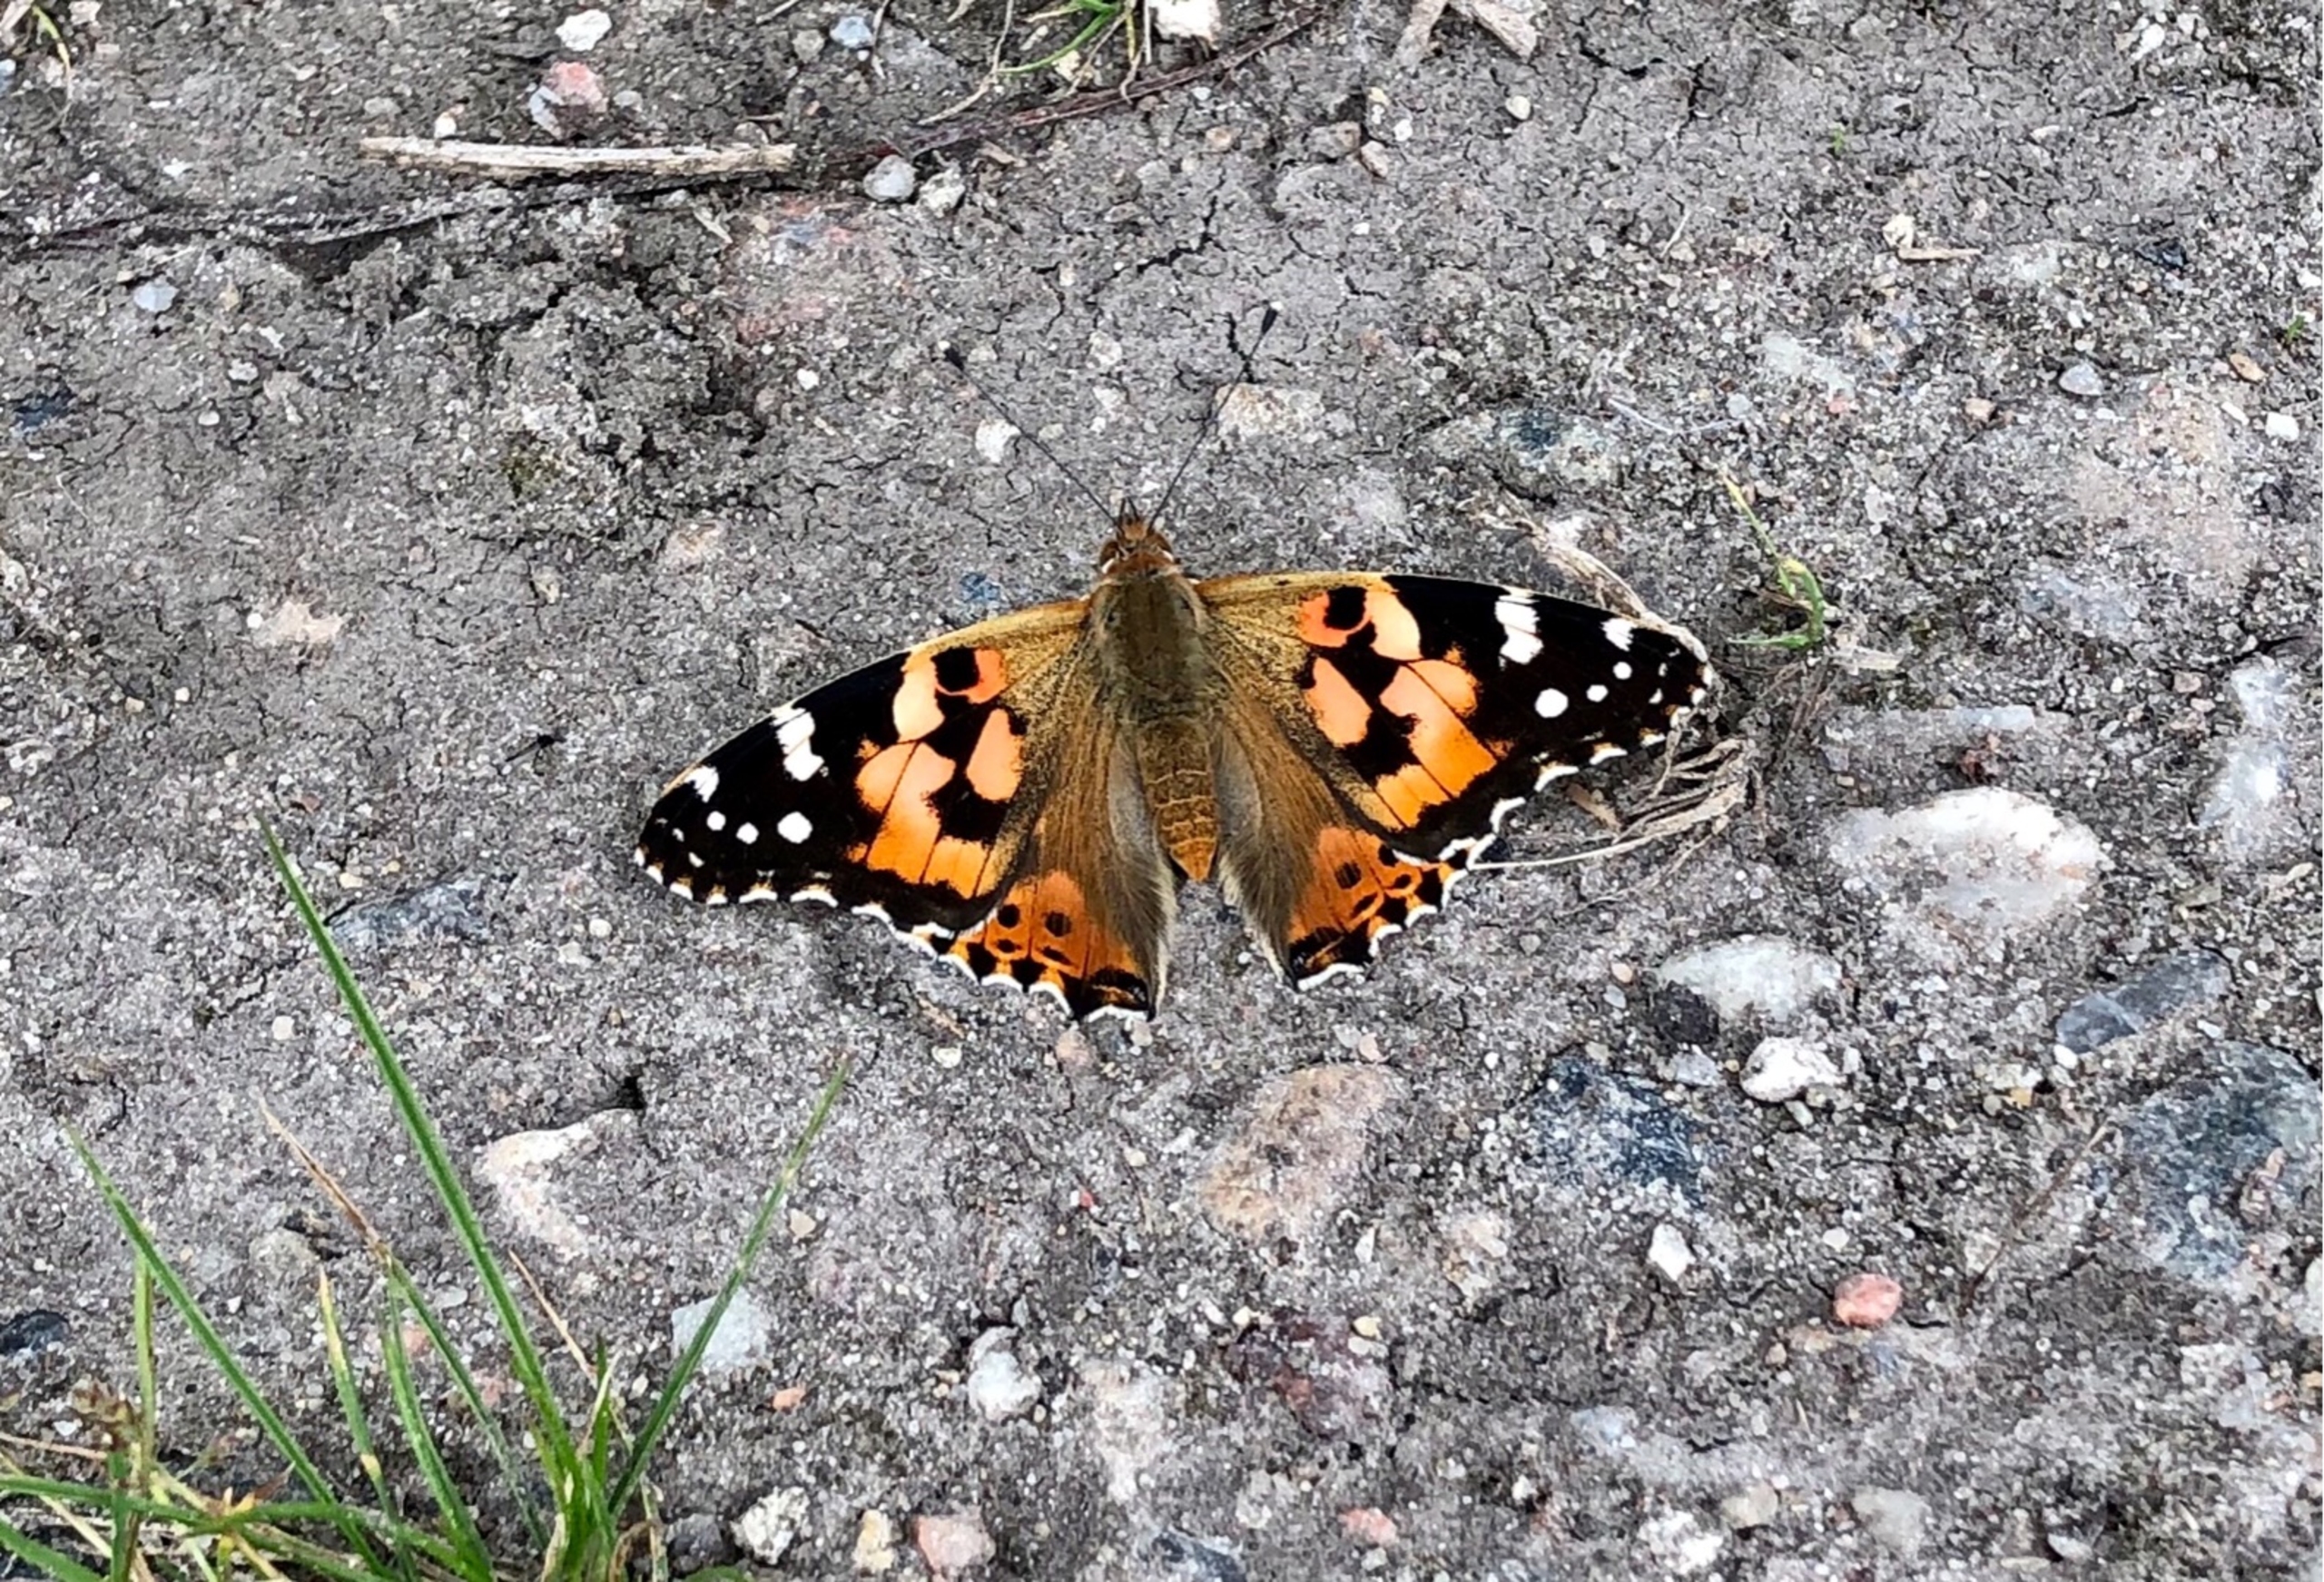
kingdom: Animalia
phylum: Arthropoda
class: Insecta
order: Lepidoptera
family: Nymphalidae
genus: Vanessa
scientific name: Vanessa cardui
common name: Tidselsommerfugl
